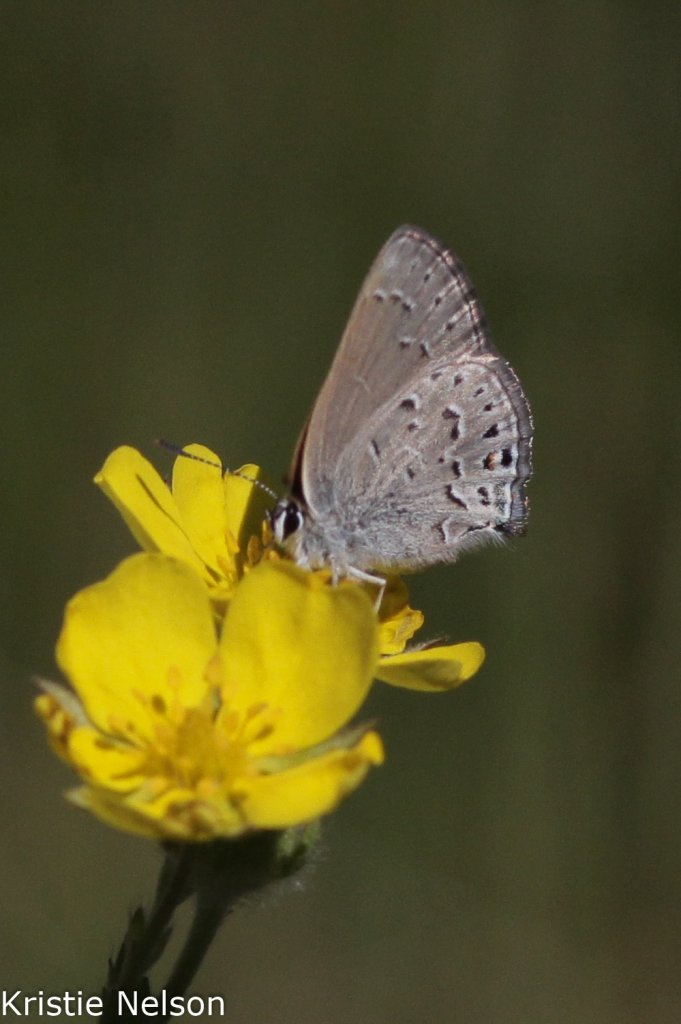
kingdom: Animalia
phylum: Arthropoda
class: Insecta
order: Lepidoptera
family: Lycaenidae
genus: Satyrium
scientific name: Satyrium behrii
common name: Behr's Hairstreak
